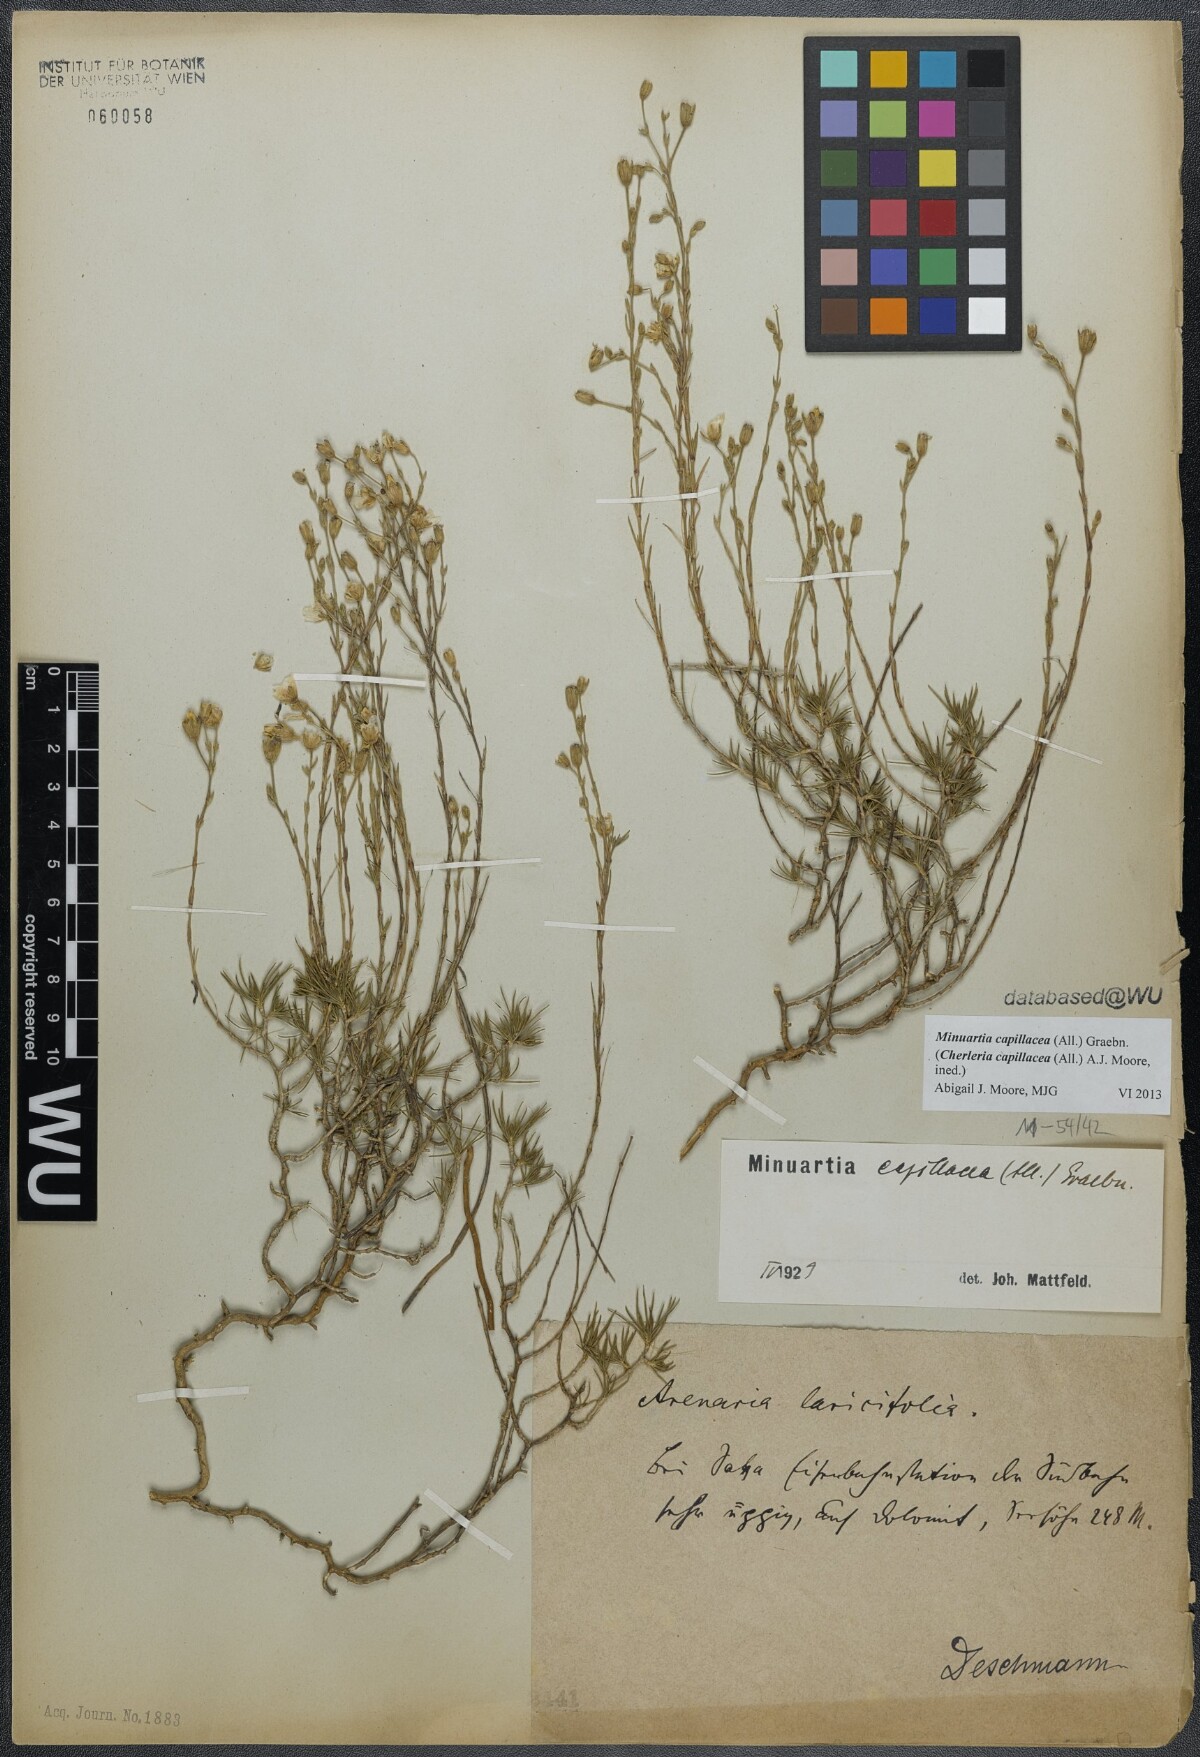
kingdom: Plantae
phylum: Tracheophyta
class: Magnoliopsida
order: Caryophyllales
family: Caryophyllaceae
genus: Cherleria
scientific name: Cherleria capillacea
